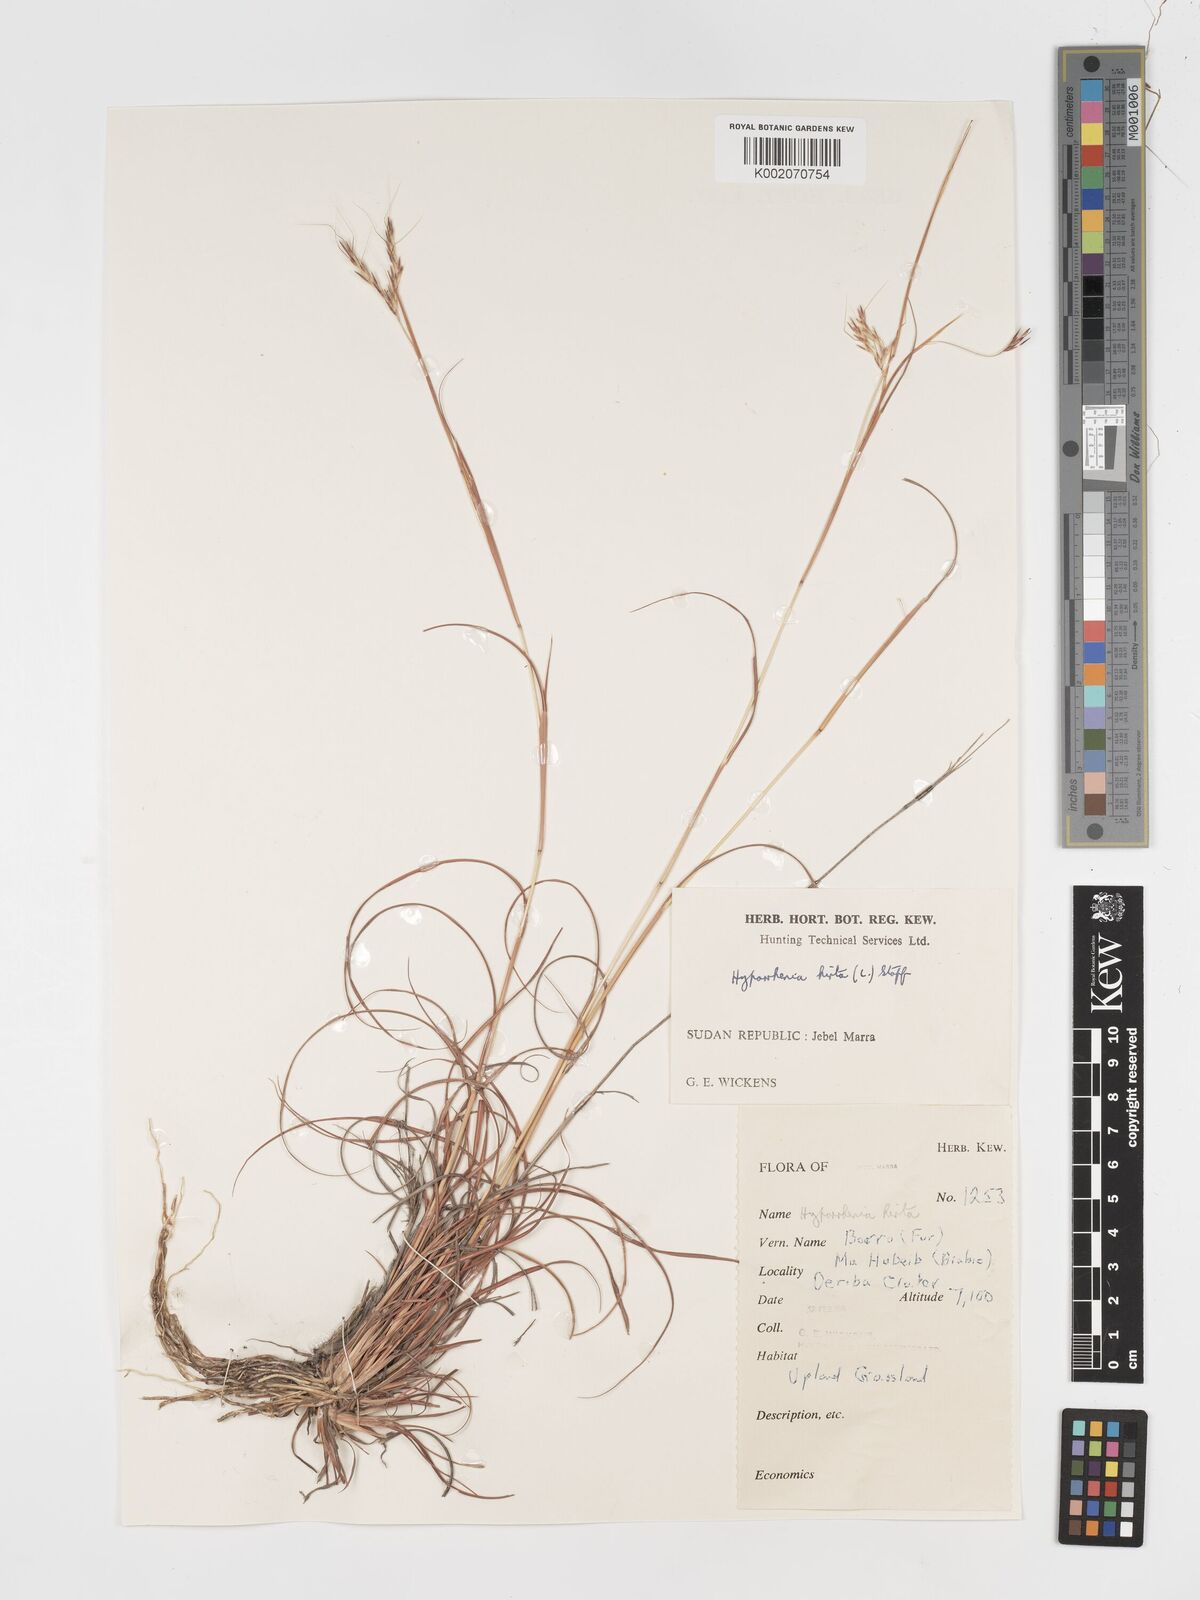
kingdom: Plantae
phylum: Tracheophyta
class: Liliopsida
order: Poales
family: Poaceae
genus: Hyparrhenia
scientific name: Hyparrhenia hirta
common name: Thatching grass
